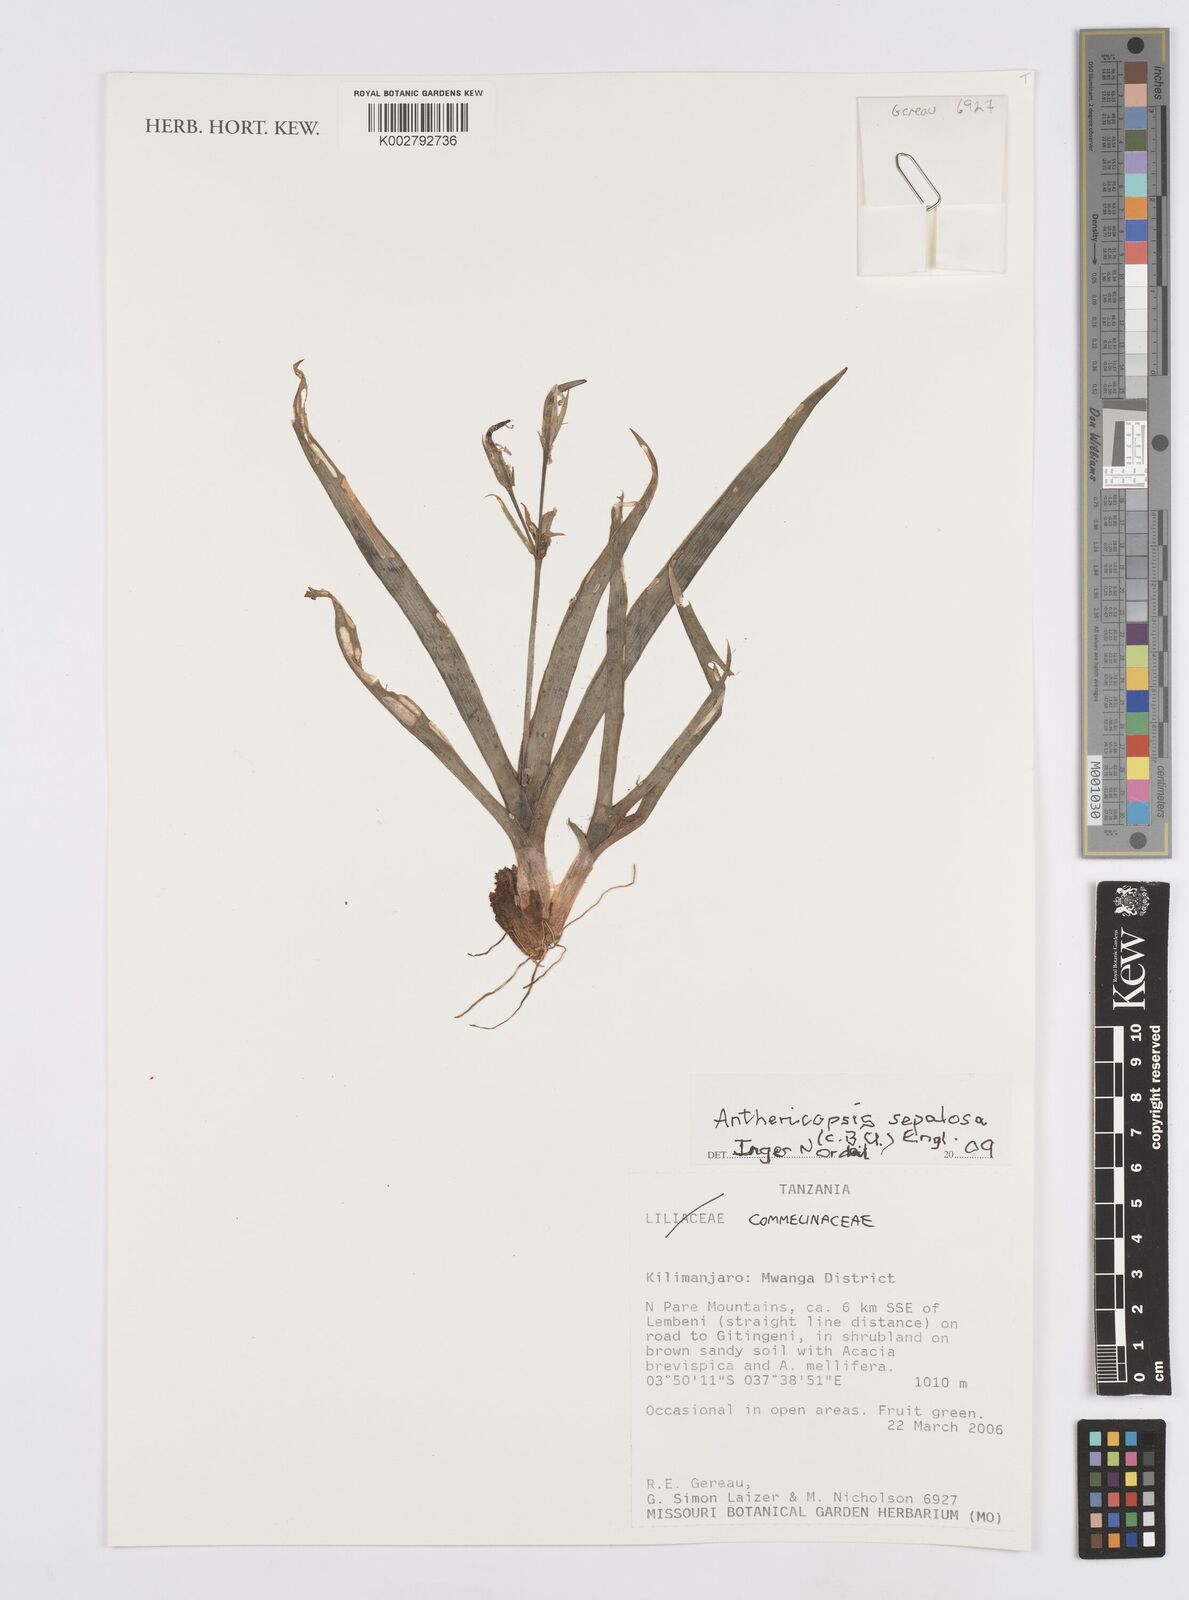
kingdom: Plantae
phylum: Tracheophyta
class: Liliopsida
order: Commelinales
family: Commelinaceae
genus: Anthericopsis
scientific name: Anthericopsis sepalosa
